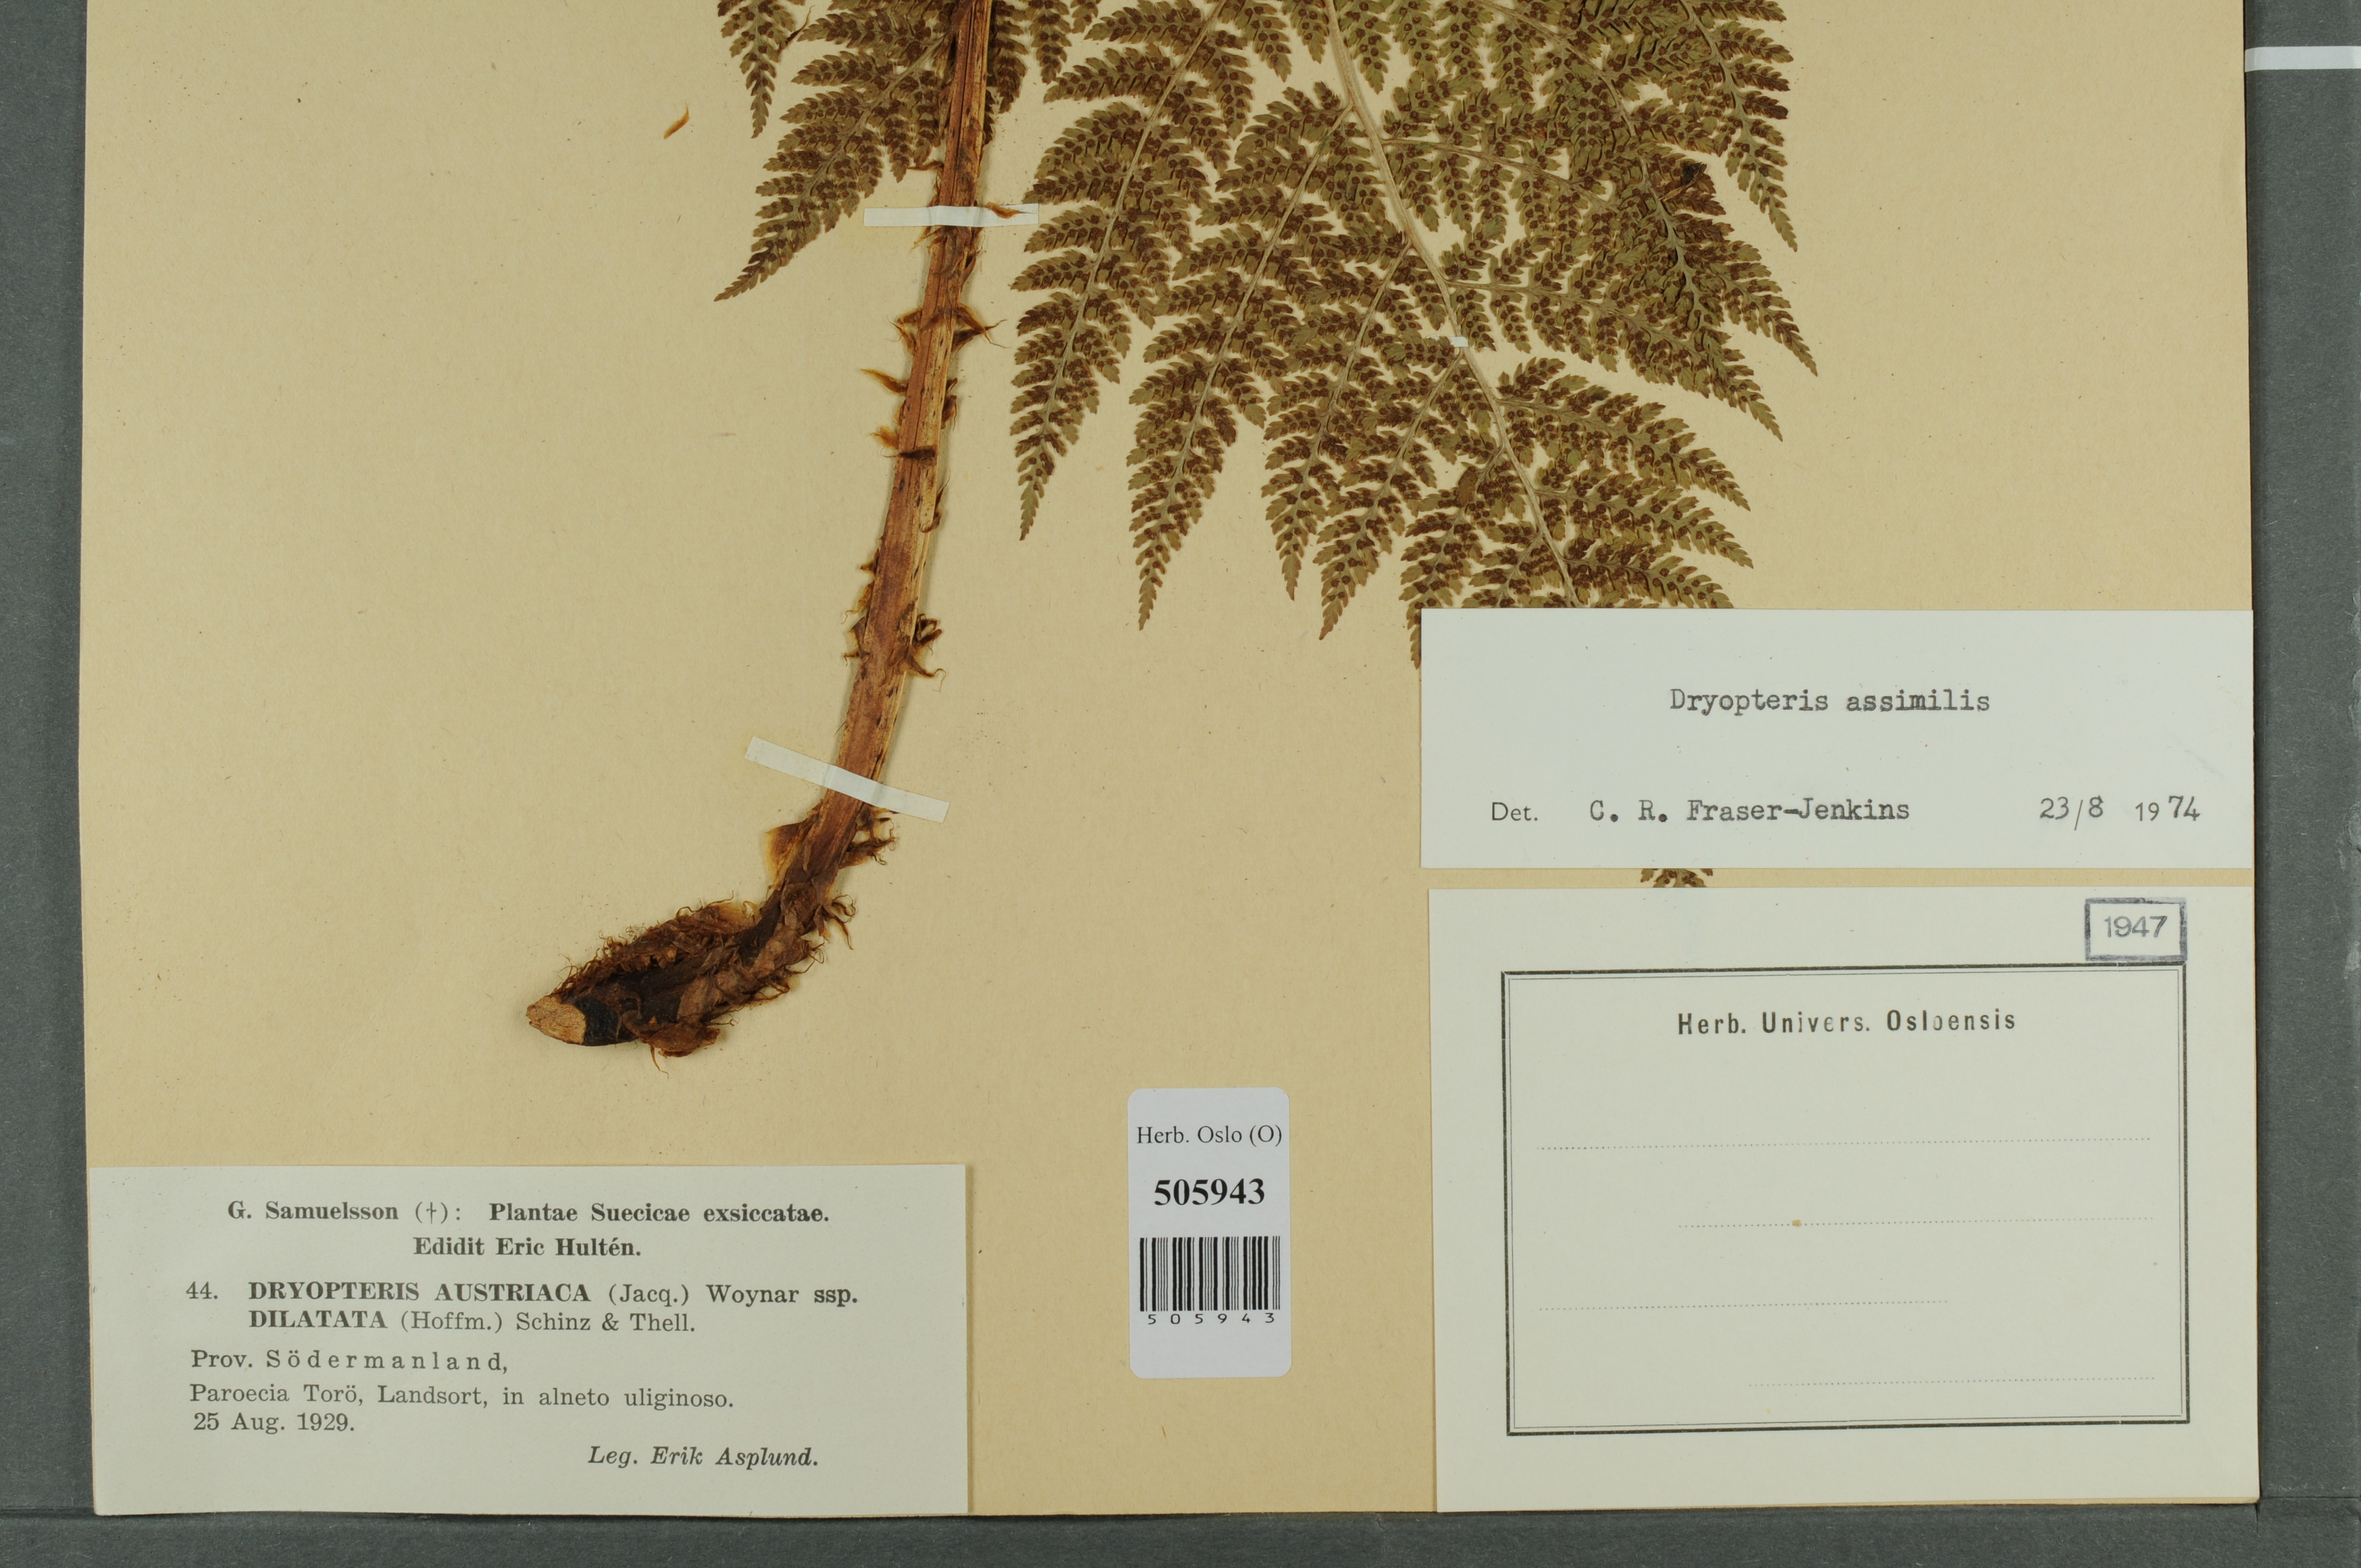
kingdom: Plantae
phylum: Tracheophyta
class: Polypodiopsida
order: Polypodiales
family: Dryopteridaceae
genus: Dryopteris
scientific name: Dryopteris expansa
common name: Northern buckler fern
